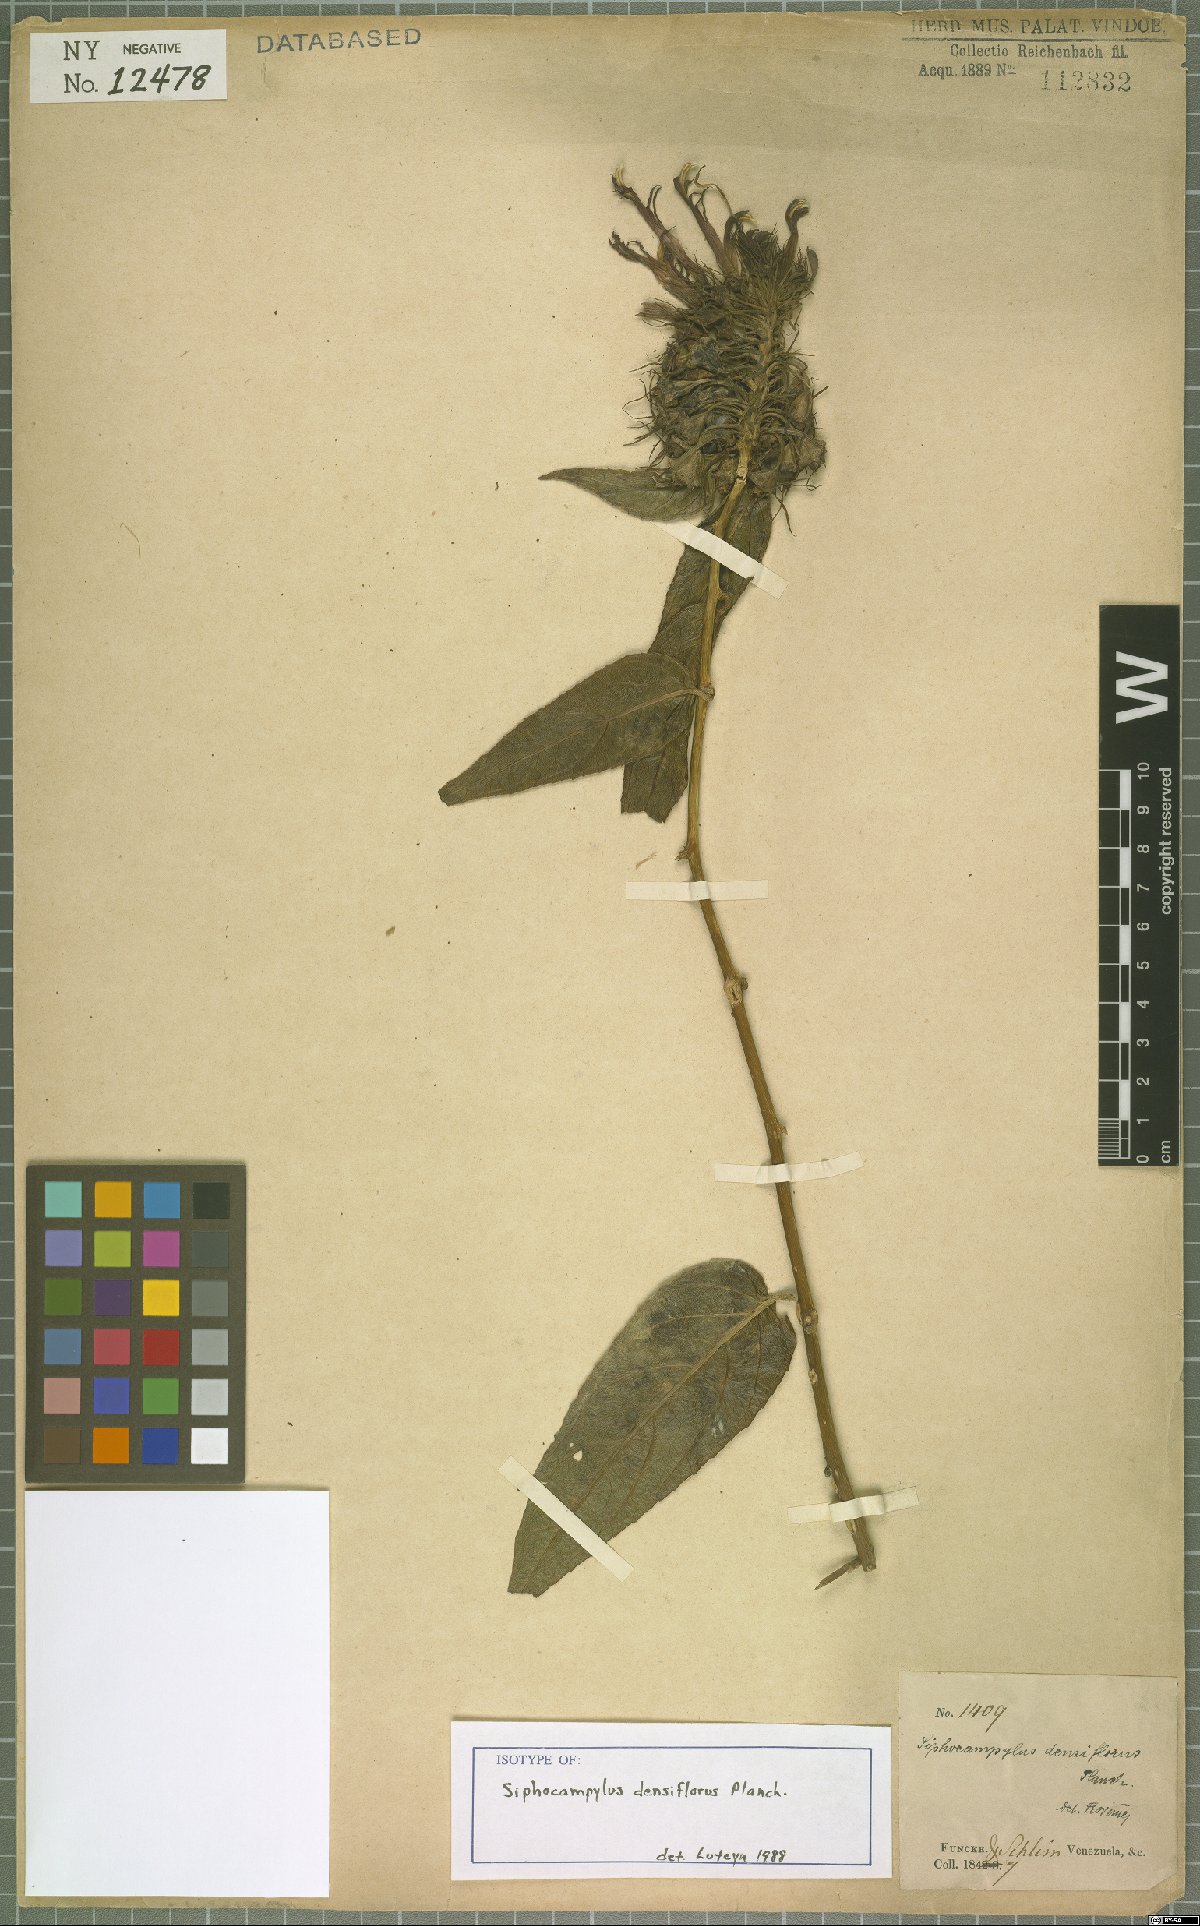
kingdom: Plantae
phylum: Tracheophyta
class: Magnoliopsida
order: Asterales
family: Campanulaceae
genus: Siphocampylus
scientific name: Siphocampylus densiflorus
